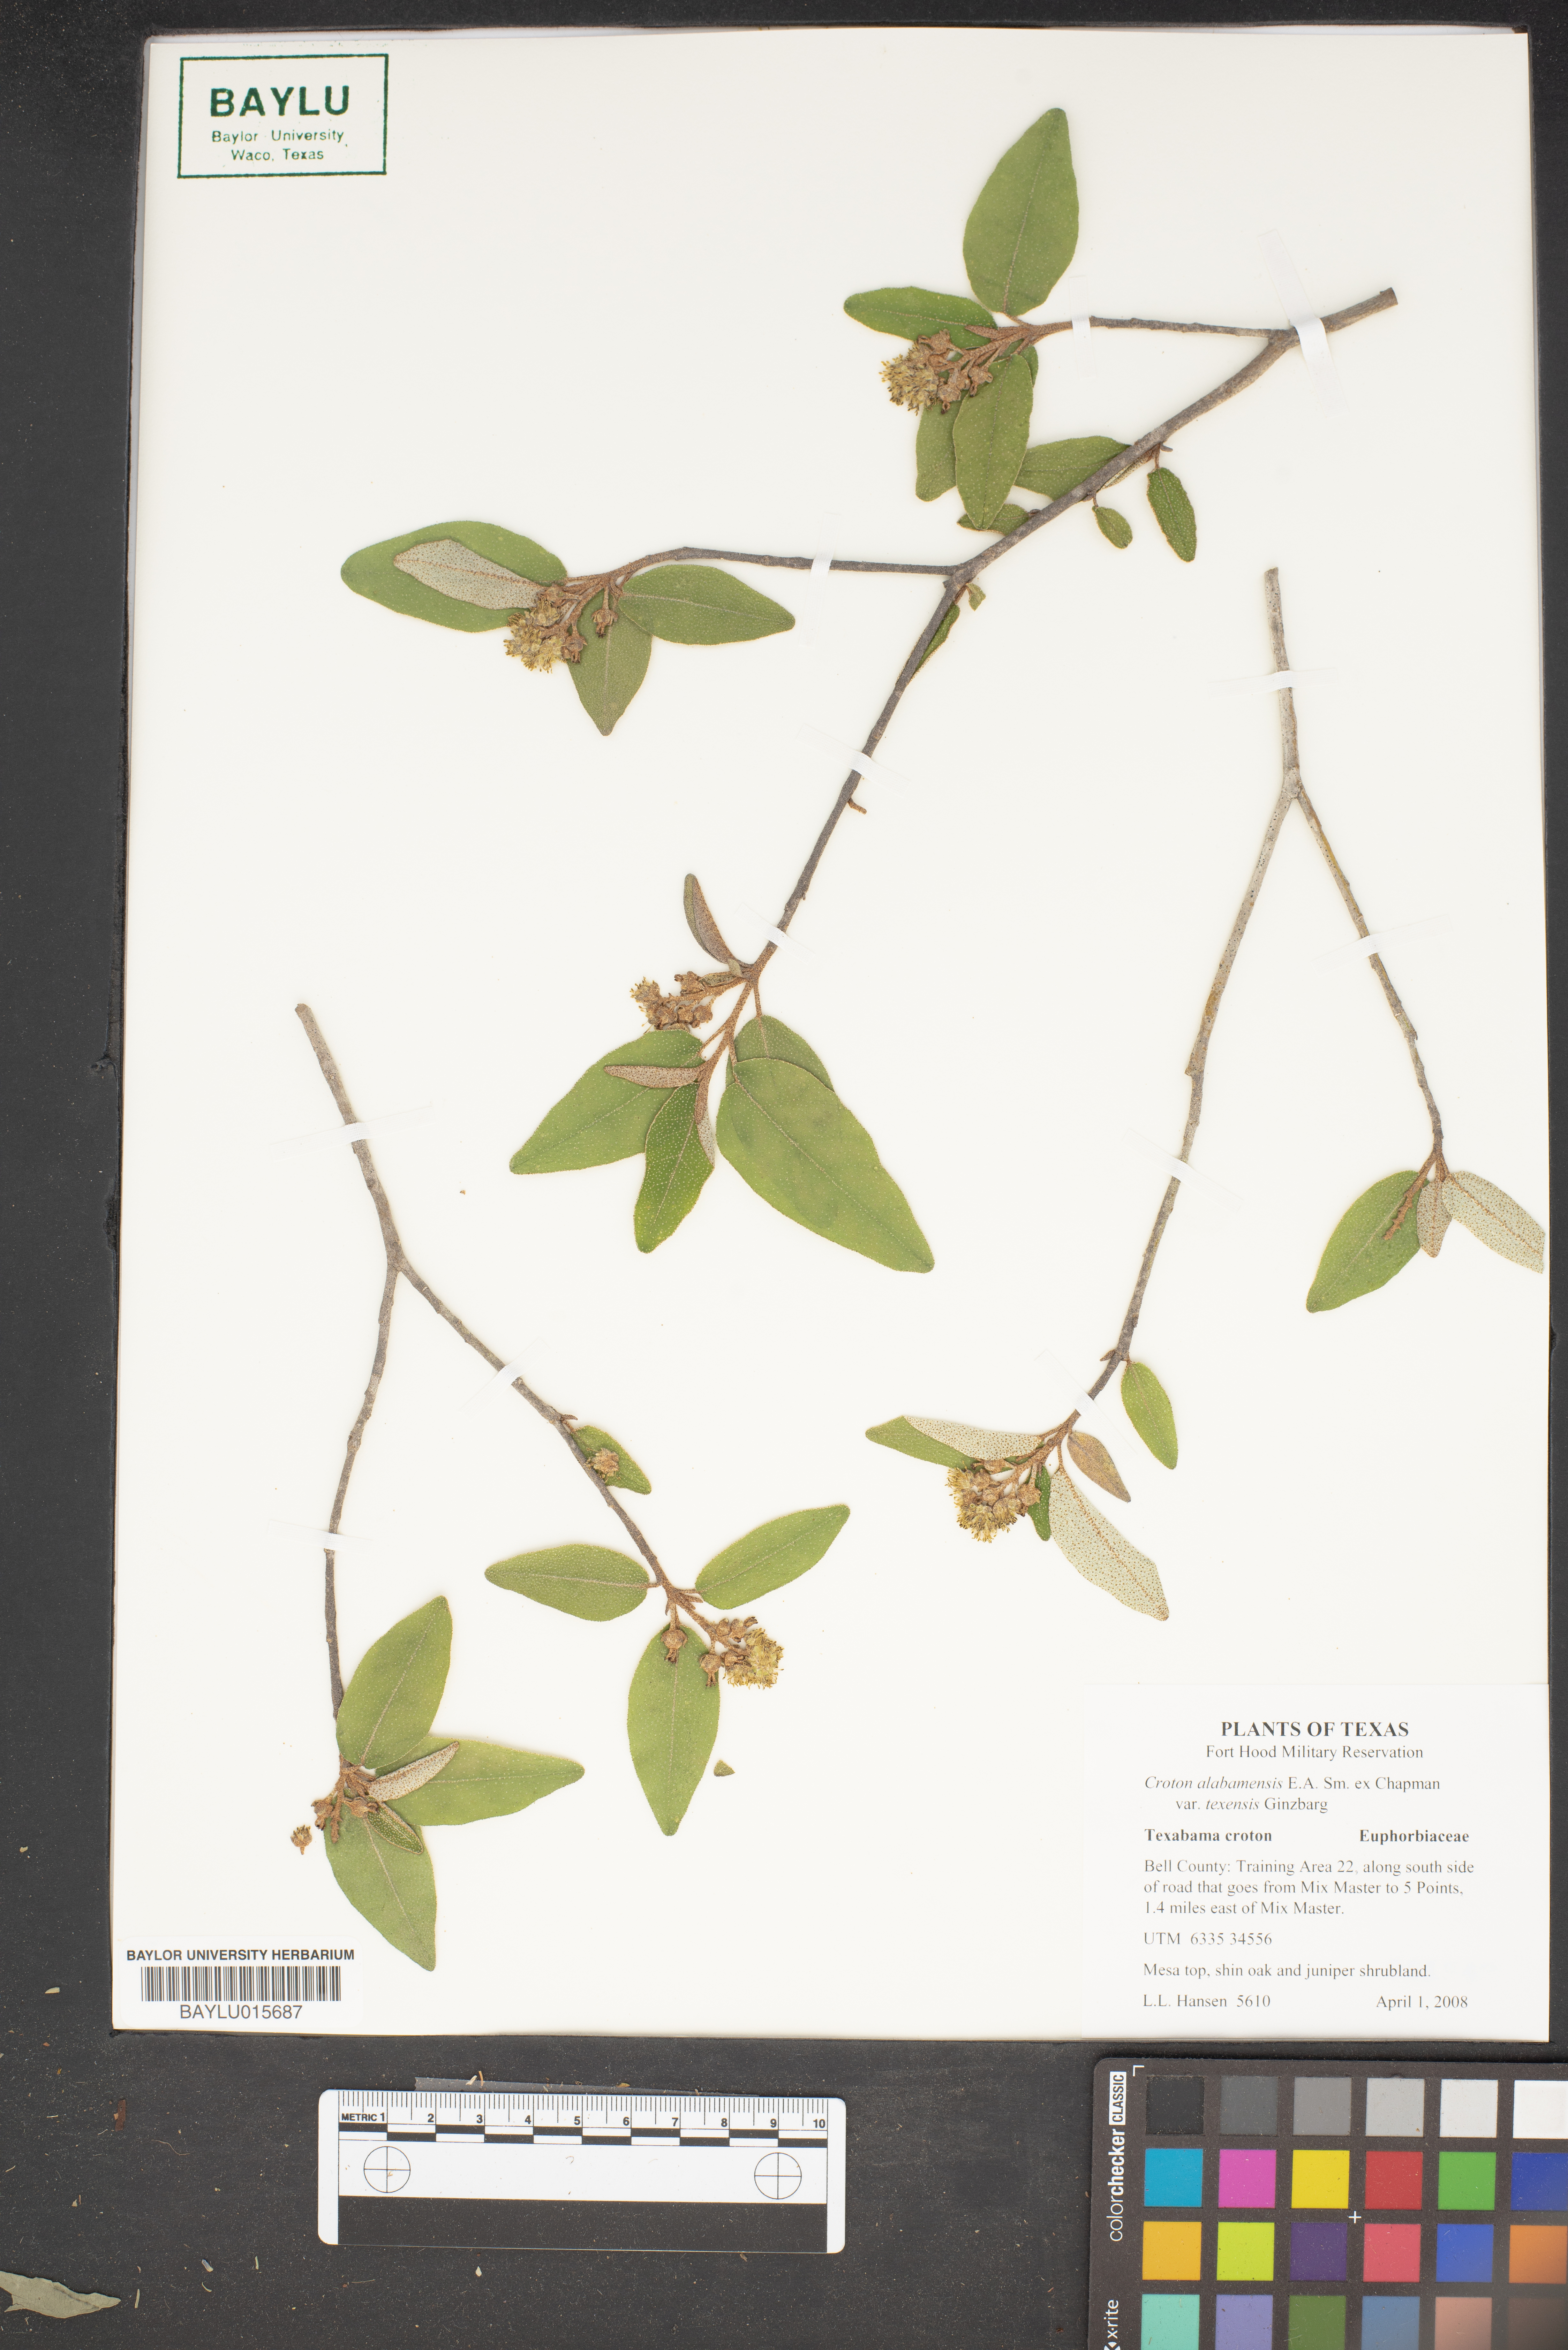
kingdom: Plantae
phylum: Tracheophyta
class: Magnoliopsida
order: Malpighiales
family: Euphorbiaceae
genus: Croton
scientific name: Croton alabamensis
